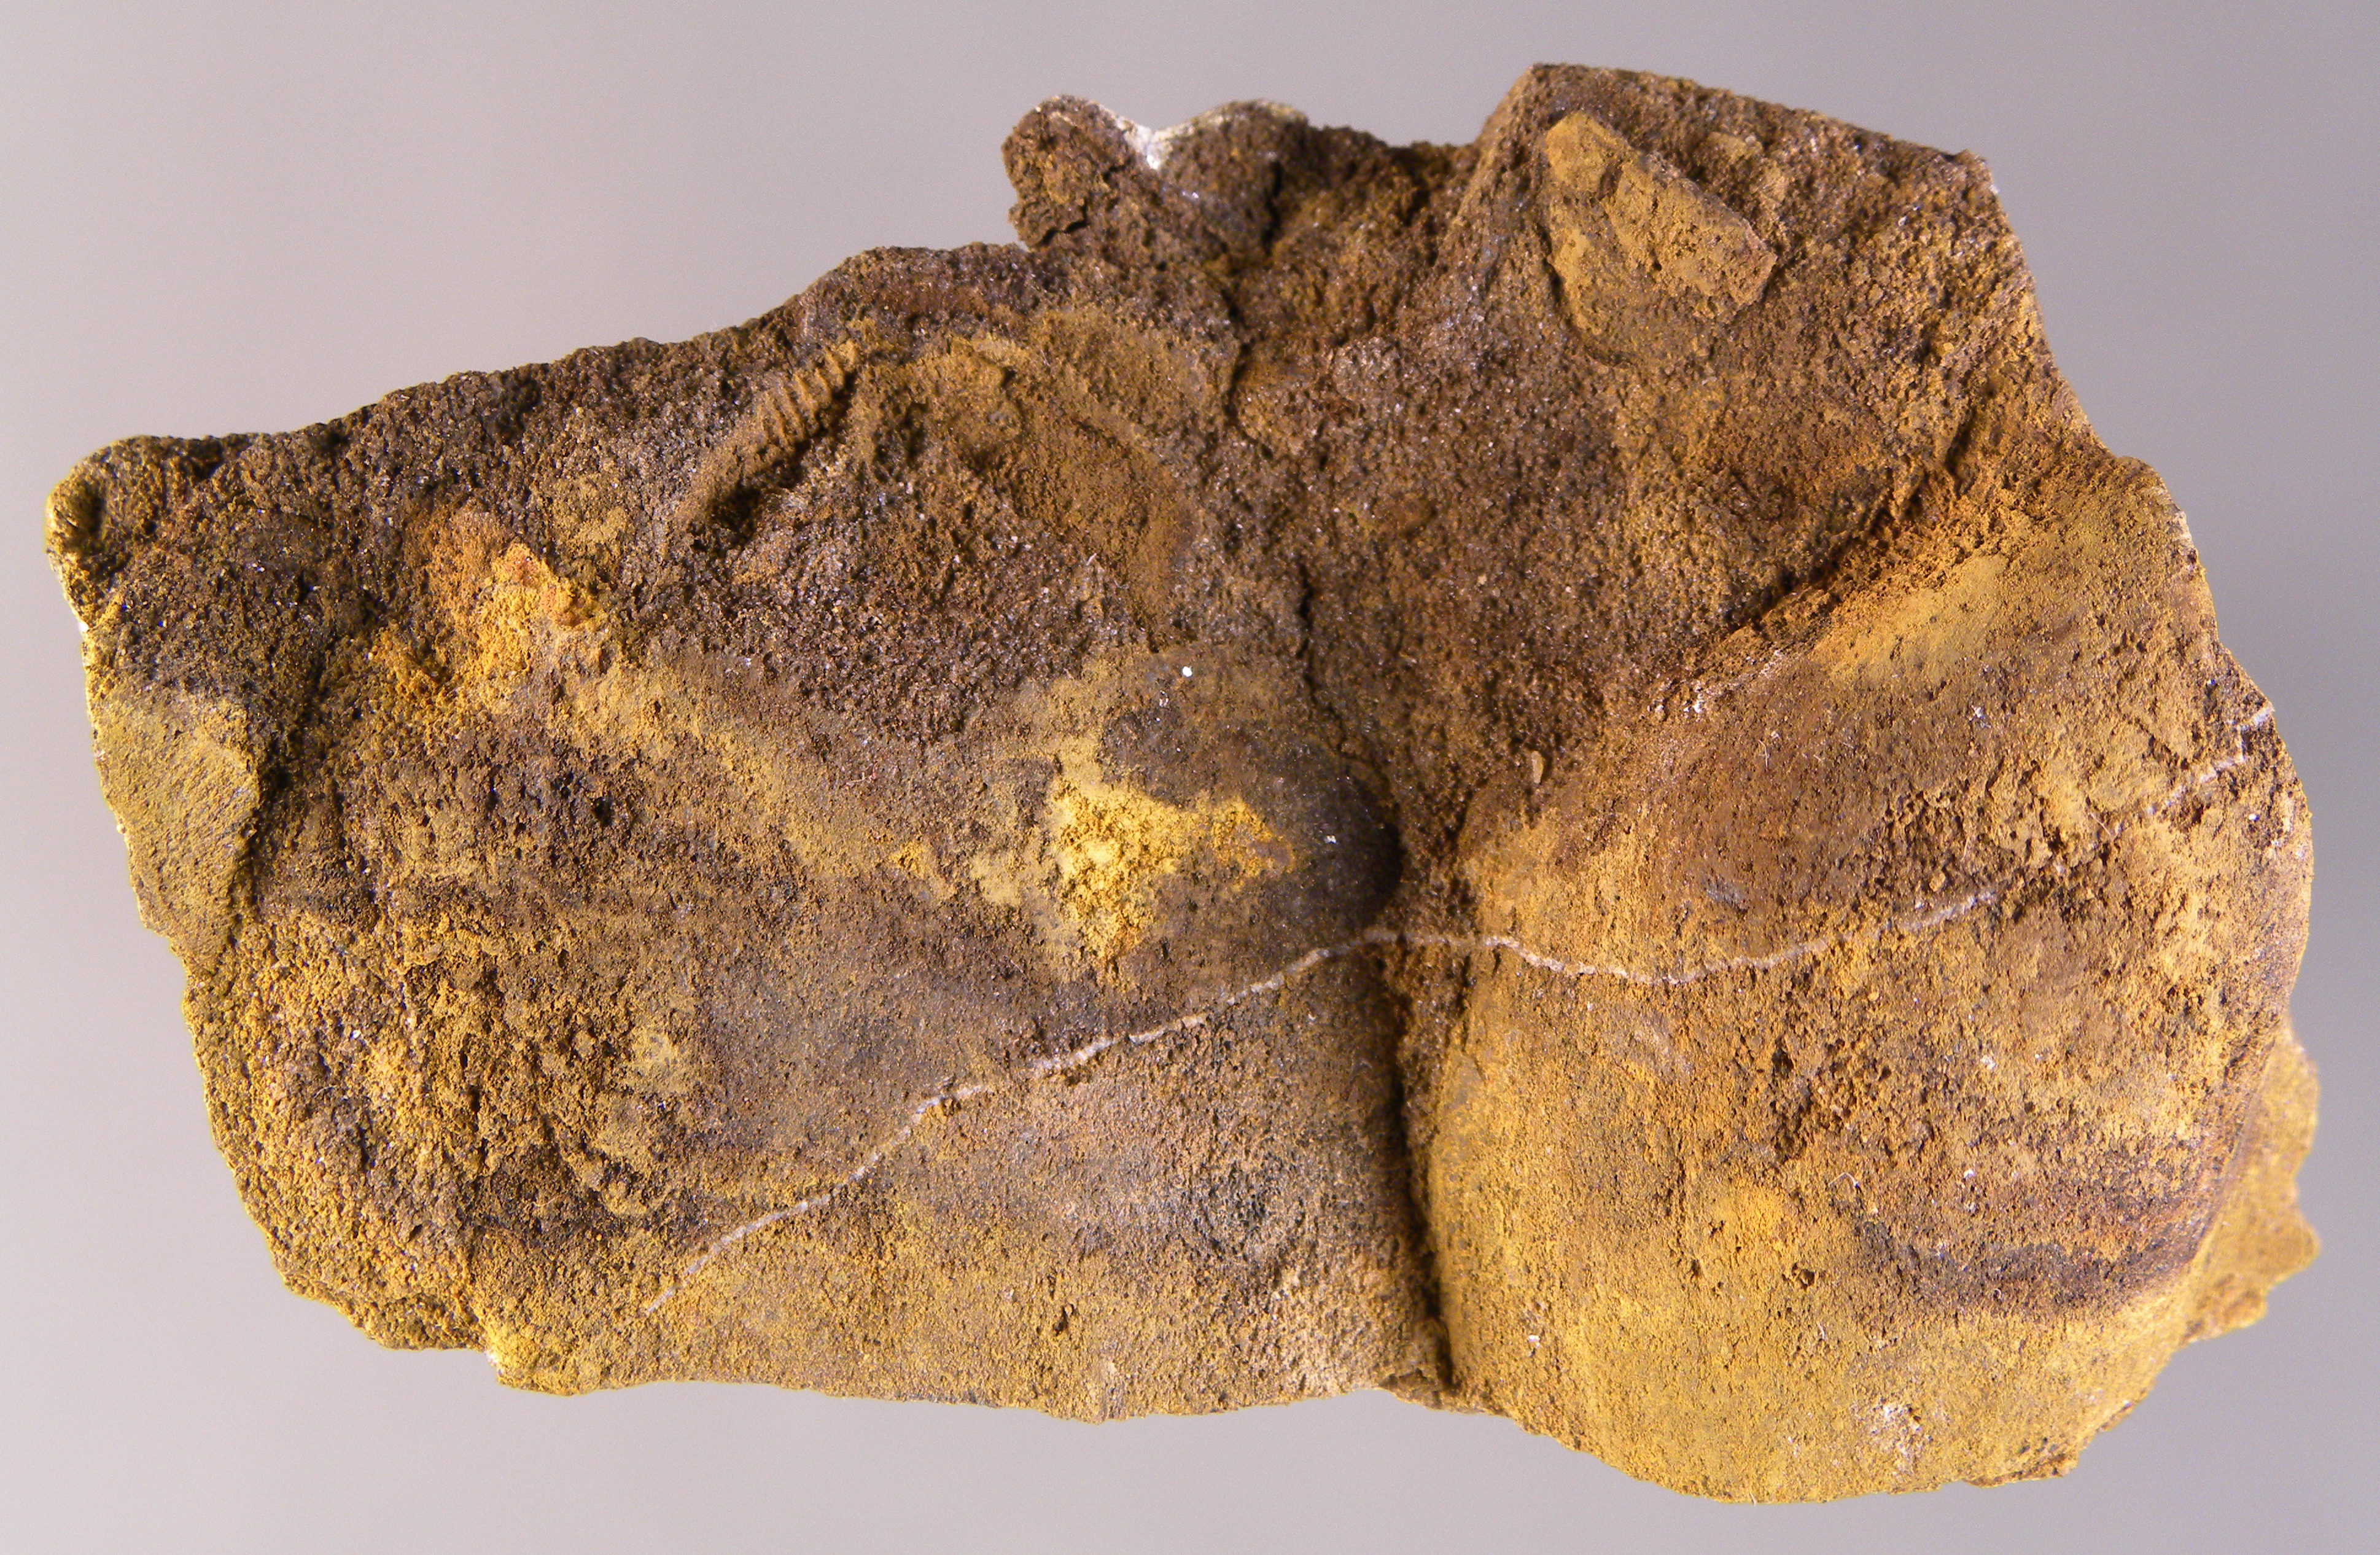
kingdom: Animalia
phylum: Mollusca
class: Bivalvia
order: Ostreida
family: Pterineidae
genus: Leptodesma
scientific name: Leptodesma
